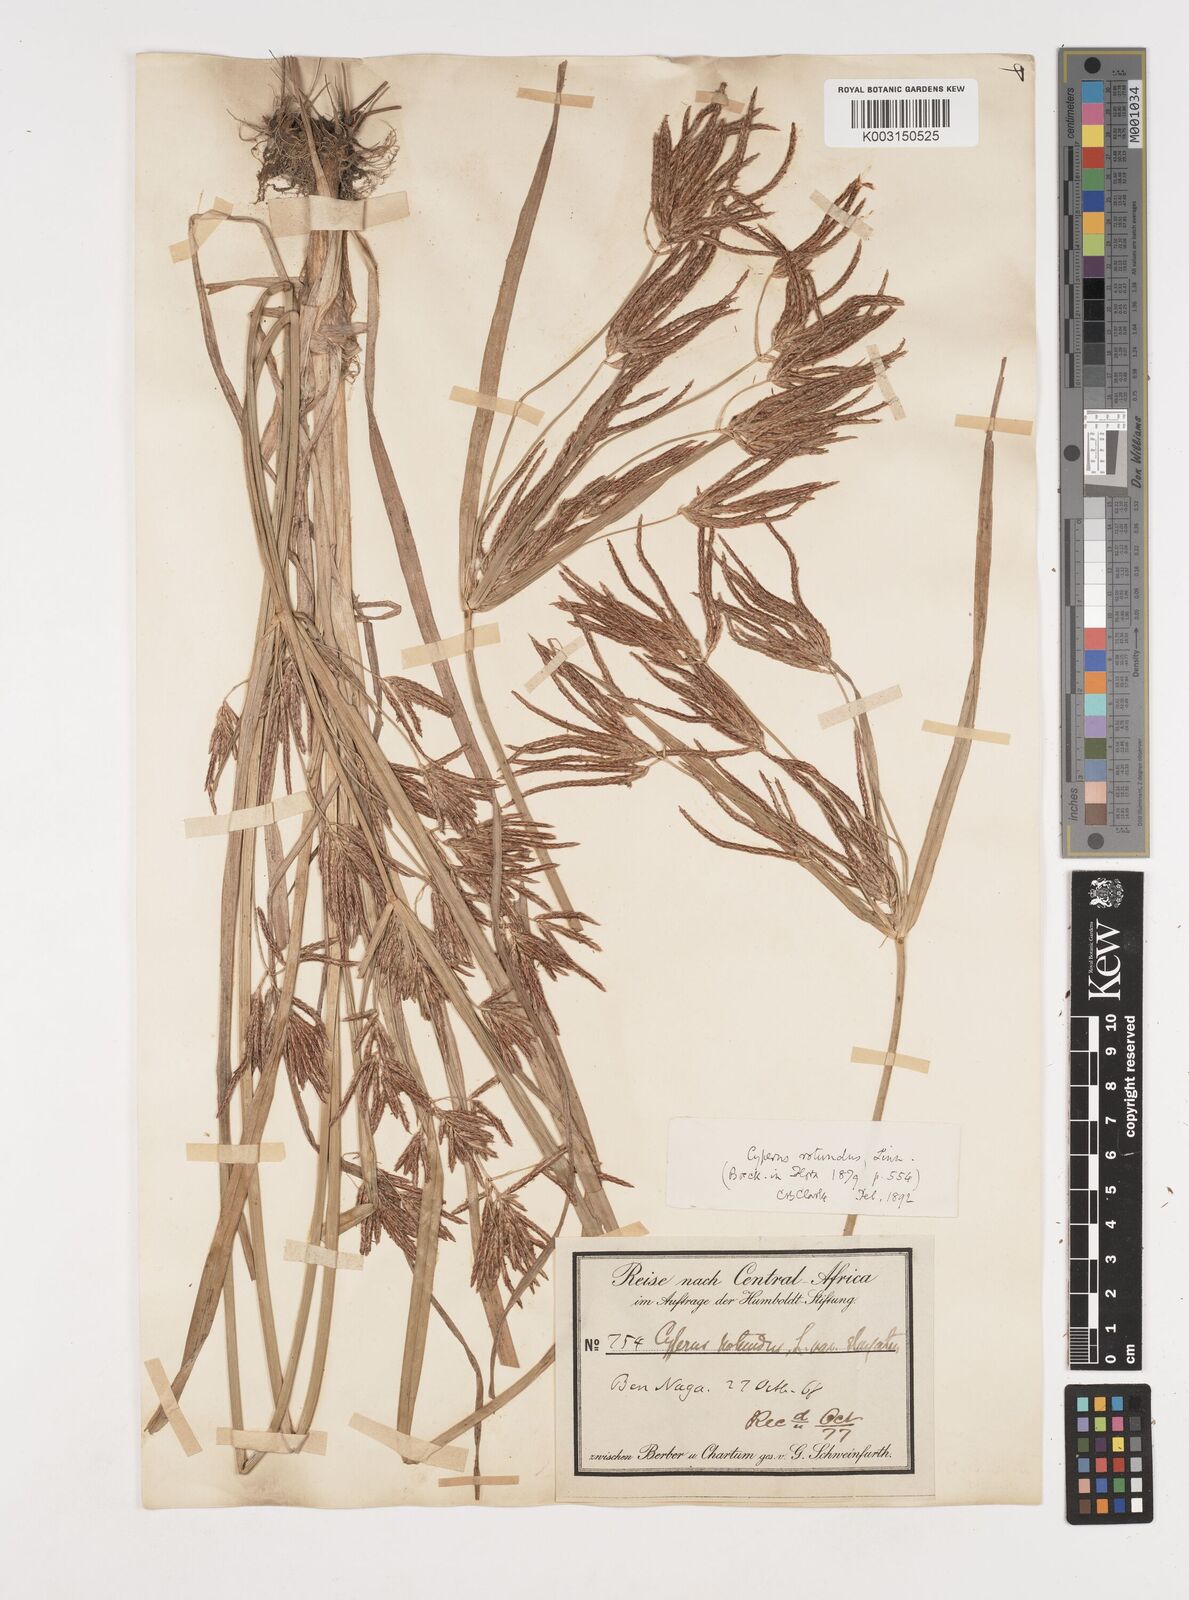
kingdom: Plantae
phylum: Tracheophyta
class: Liliopsida
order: Poales
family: Cyperaceae
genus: Cyperus
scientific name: Cyperus rotundus
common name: Nutgrass
